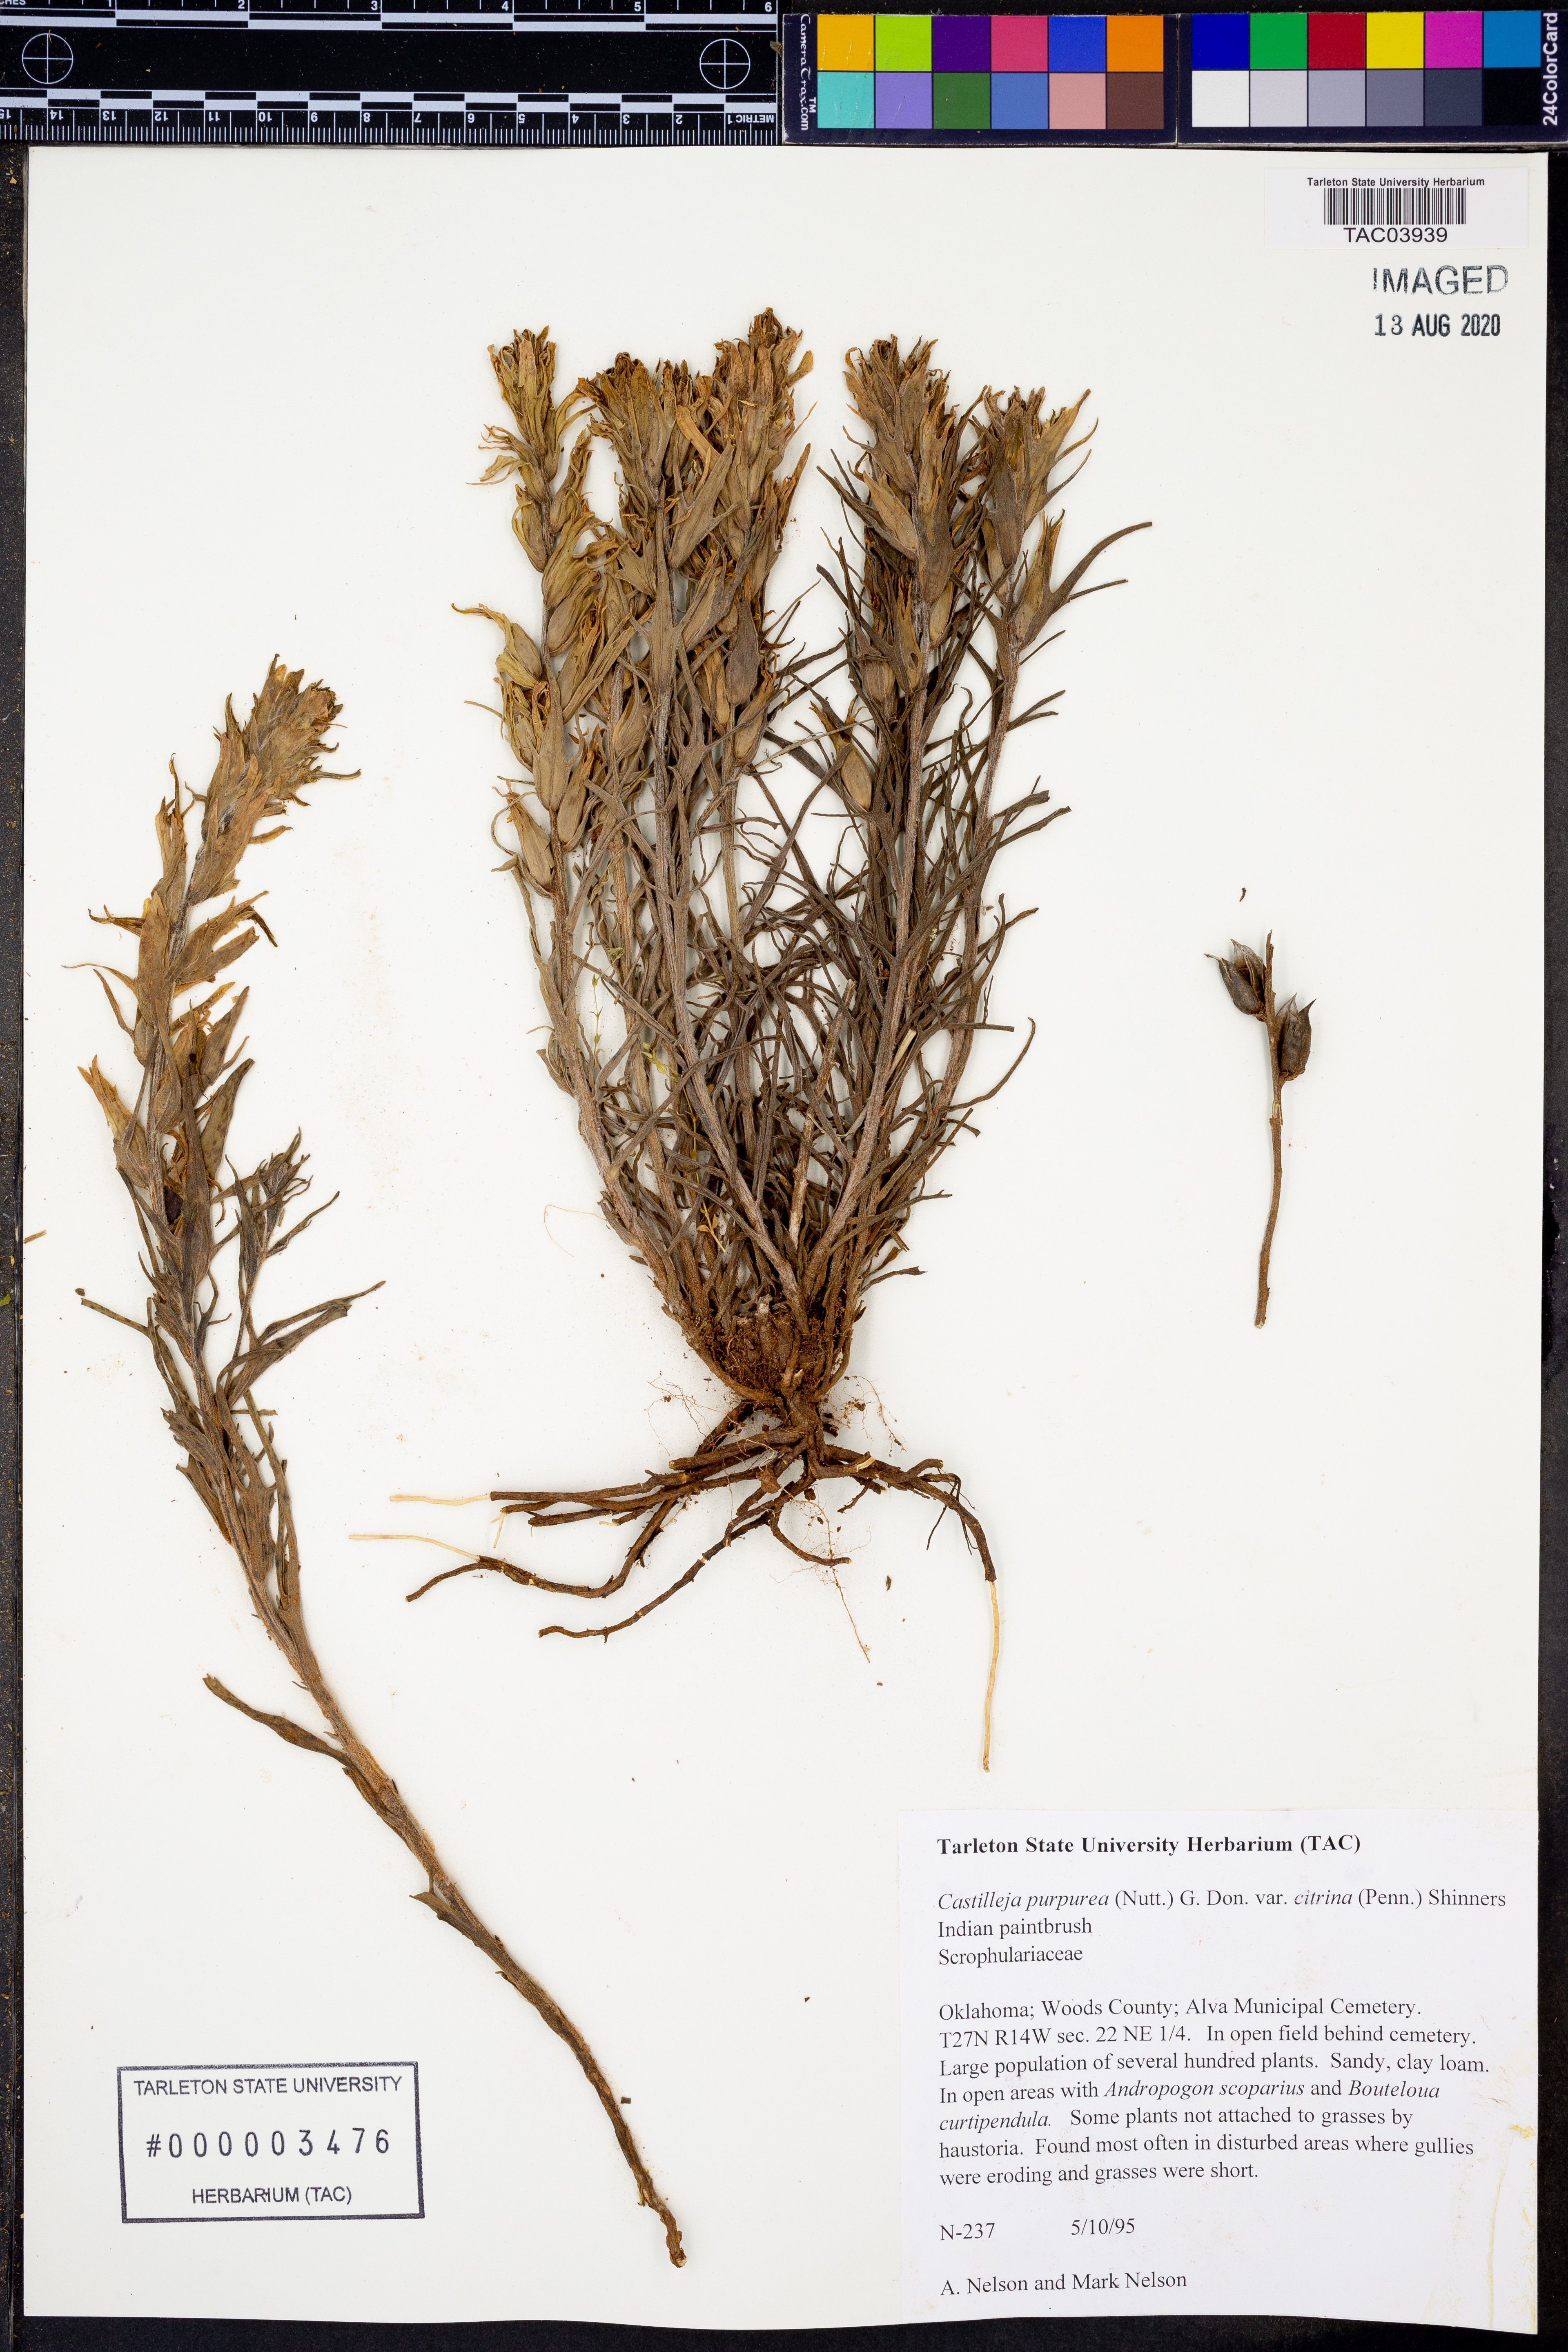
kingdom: Plantae
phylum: Tracheophyta
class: Magnoliopsida
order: Lamiales
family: Orobanchaceae
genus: Castilleja
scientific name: Castilleja citrina
